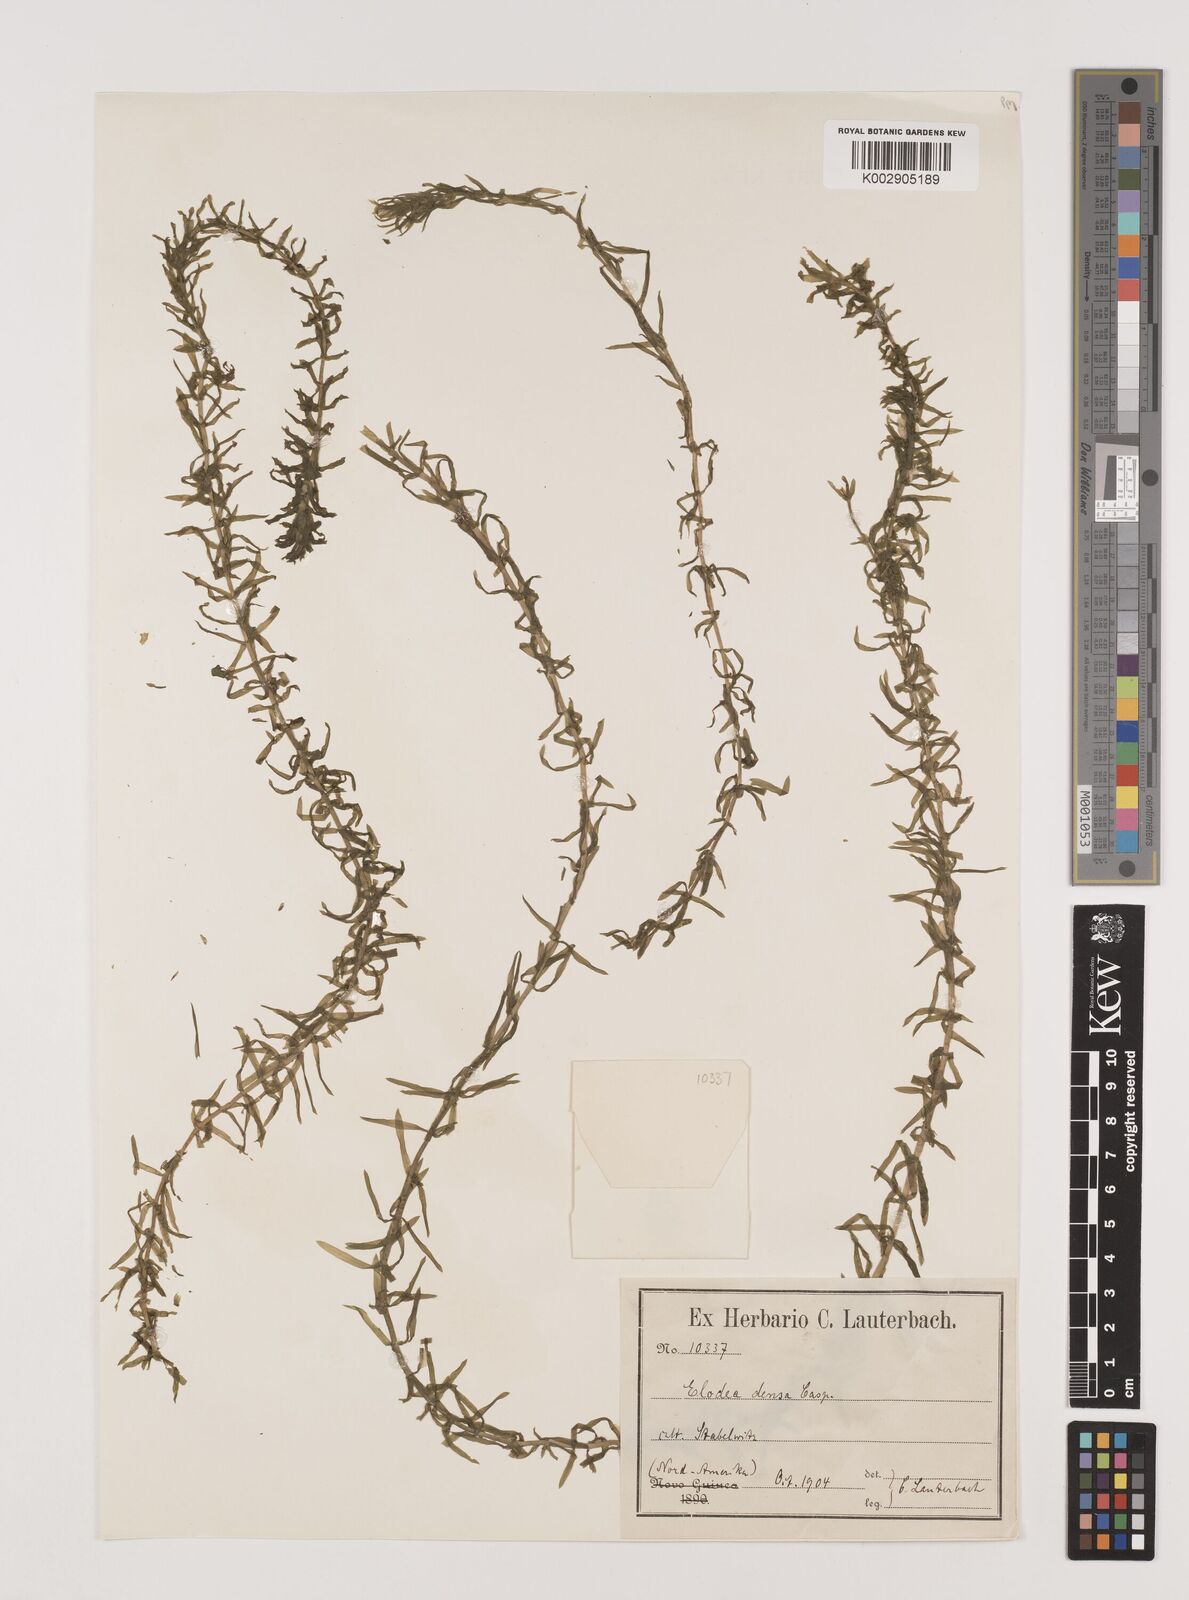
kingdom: Plantae
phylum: Tracheophyta
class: Liliopsida
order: Alismatales
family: Hydrocharitaceae
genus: Lagarosiphon
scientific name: Lagarosiphon madagascariensis
